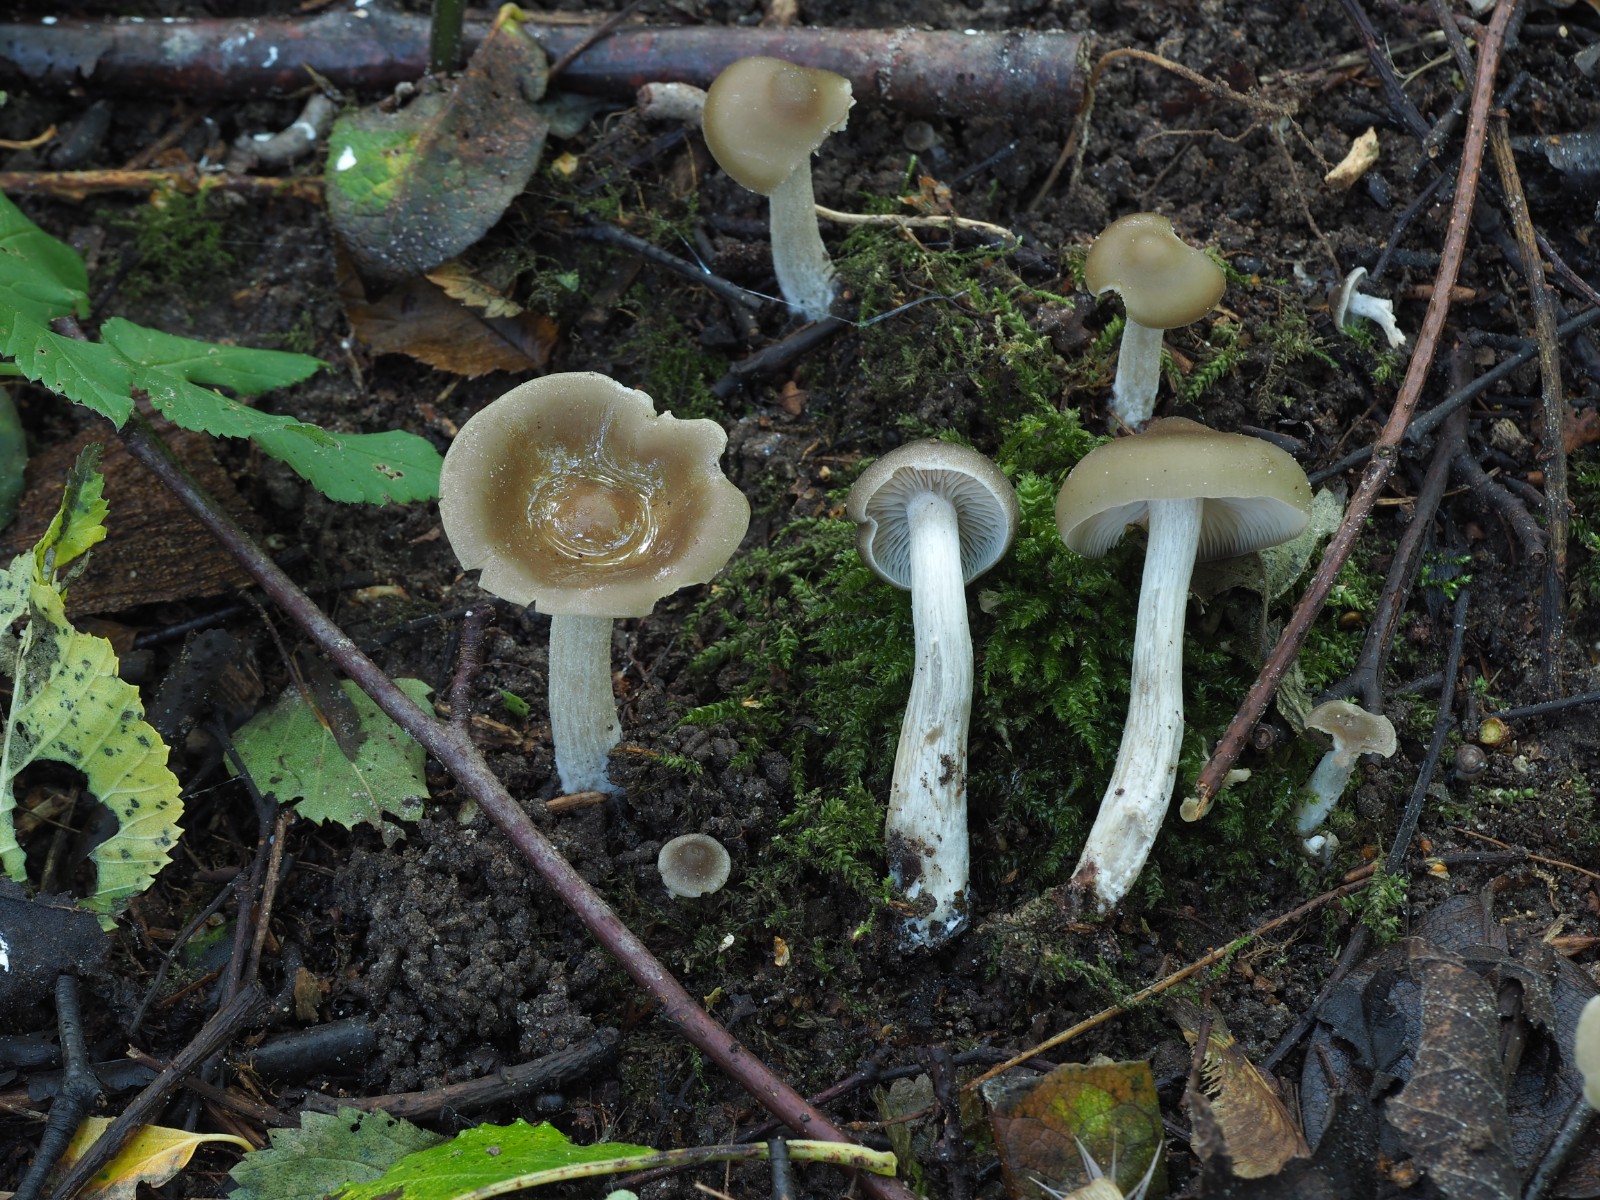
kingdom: Fungi
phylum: Basidiomycota
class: Agaricomycetes
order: Agaricales
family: Entolomataceae
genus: Entoloma
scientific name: Entoloma sericatum
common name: rank rødblad
